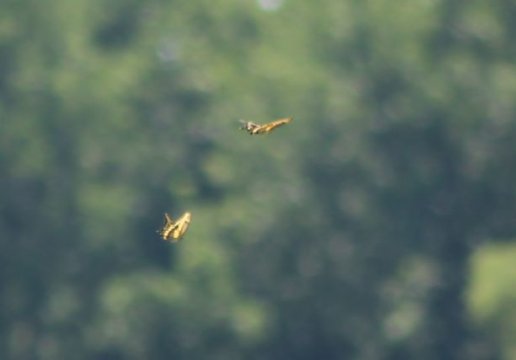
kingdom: Animalia
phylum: Arthropoda
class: Insecta
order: Lepidoptera
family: Papilionidae
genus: Papilio
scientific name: Papilio cresphontes
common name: Eastern Giant Swallowtail
